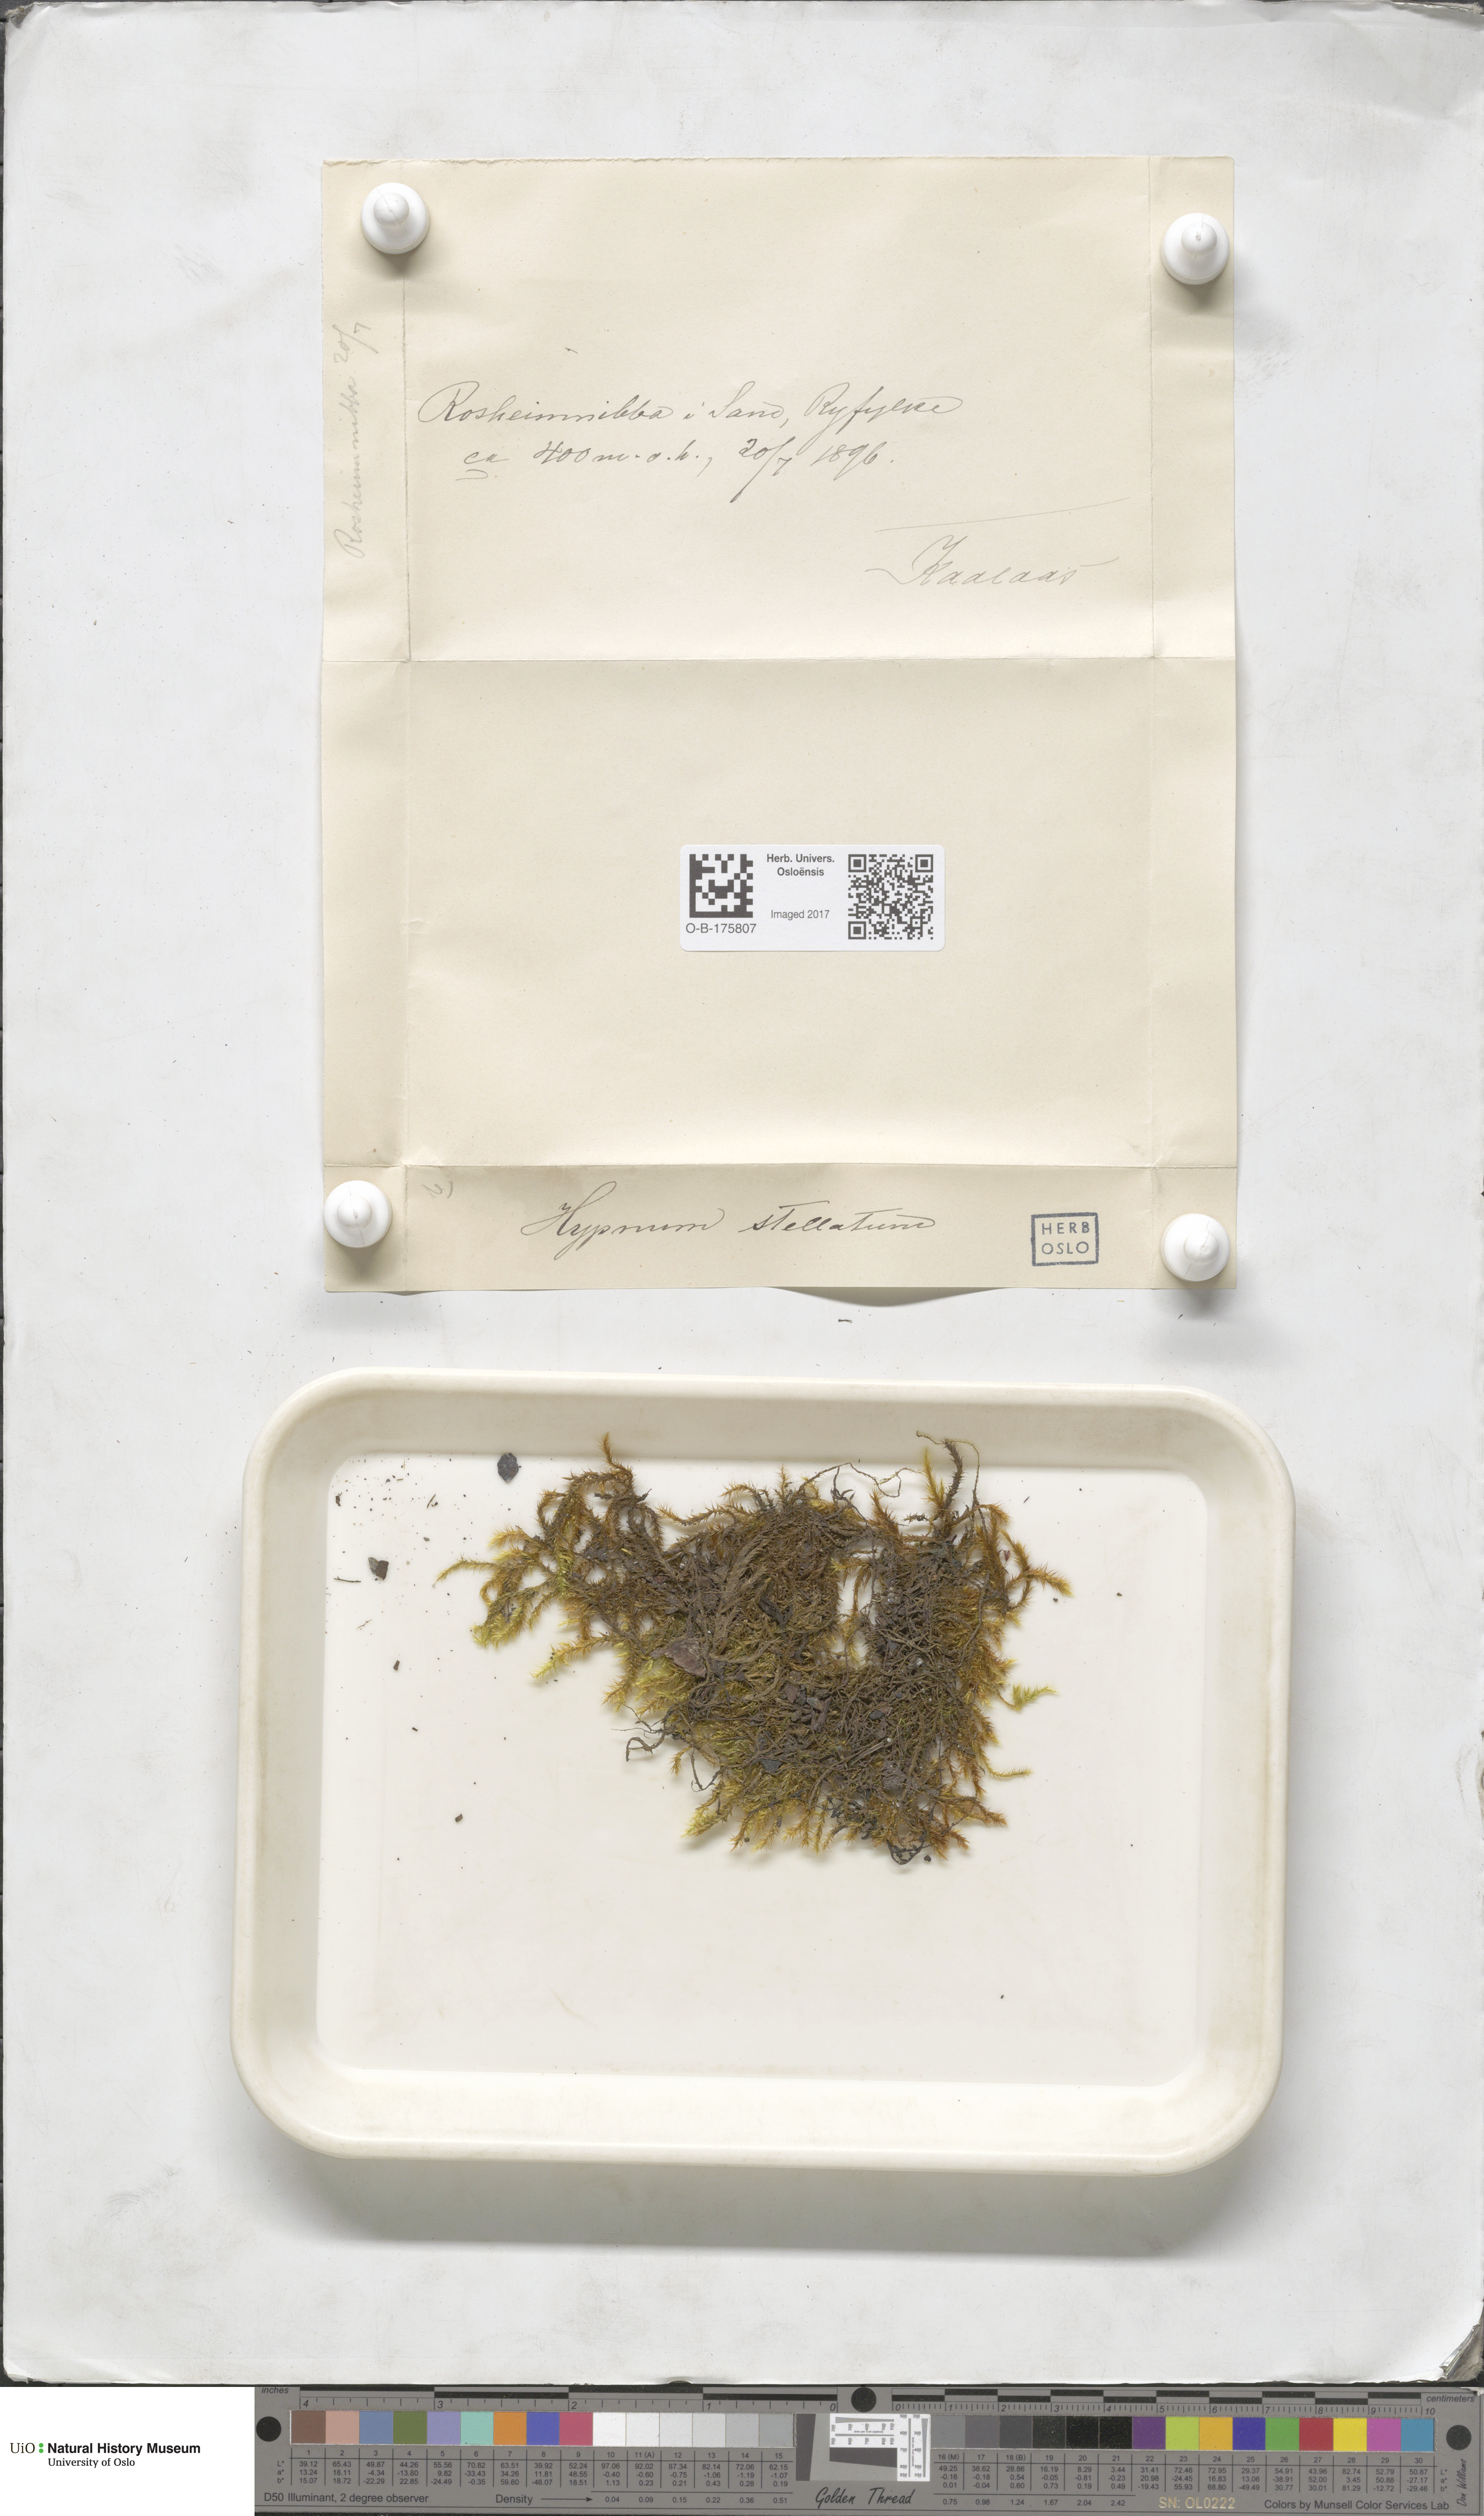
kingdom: Plantae
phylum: Bryophyta
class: Bryopsida
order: Hypnales
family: Amblystegiaceae
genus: Campylium
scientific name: Campylium stellatum
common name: Yellow starry fen moss
